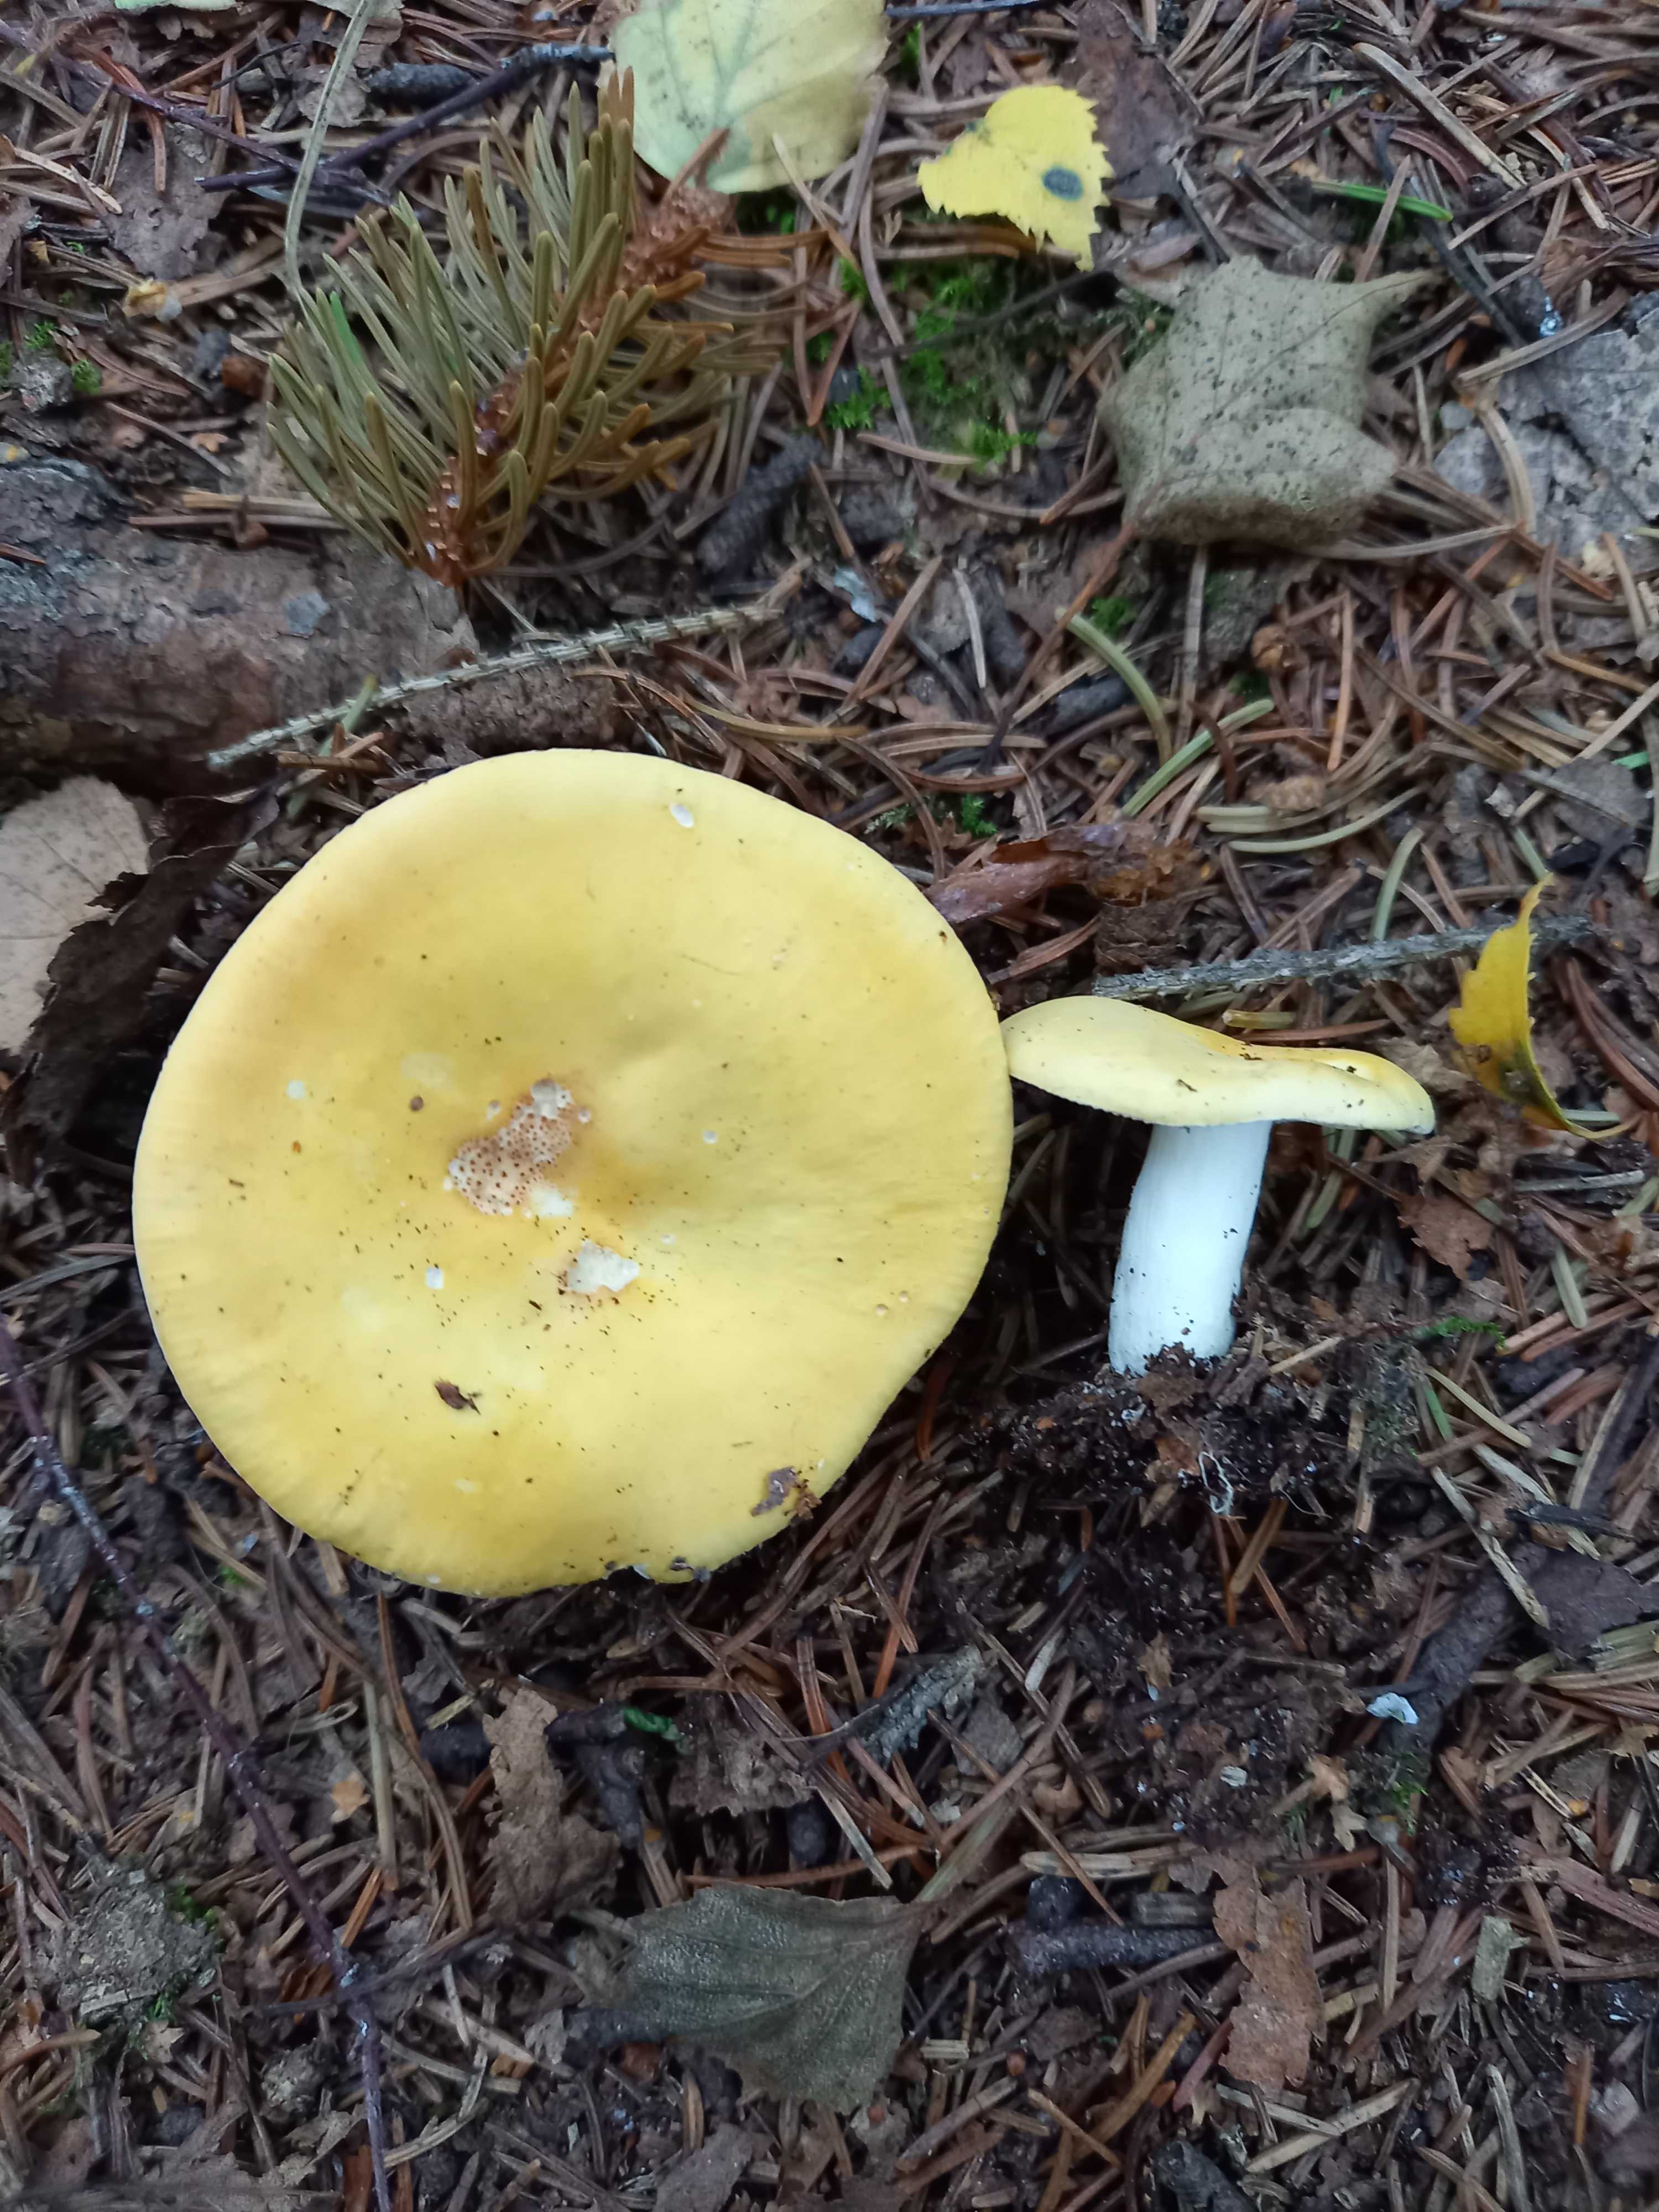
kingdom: Fungi
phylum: Basidiomycota
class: Agaricomycetes
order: Russulales
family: Russulaceae
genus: Russula
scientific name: Russula claroflava
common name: birke-skørhat
